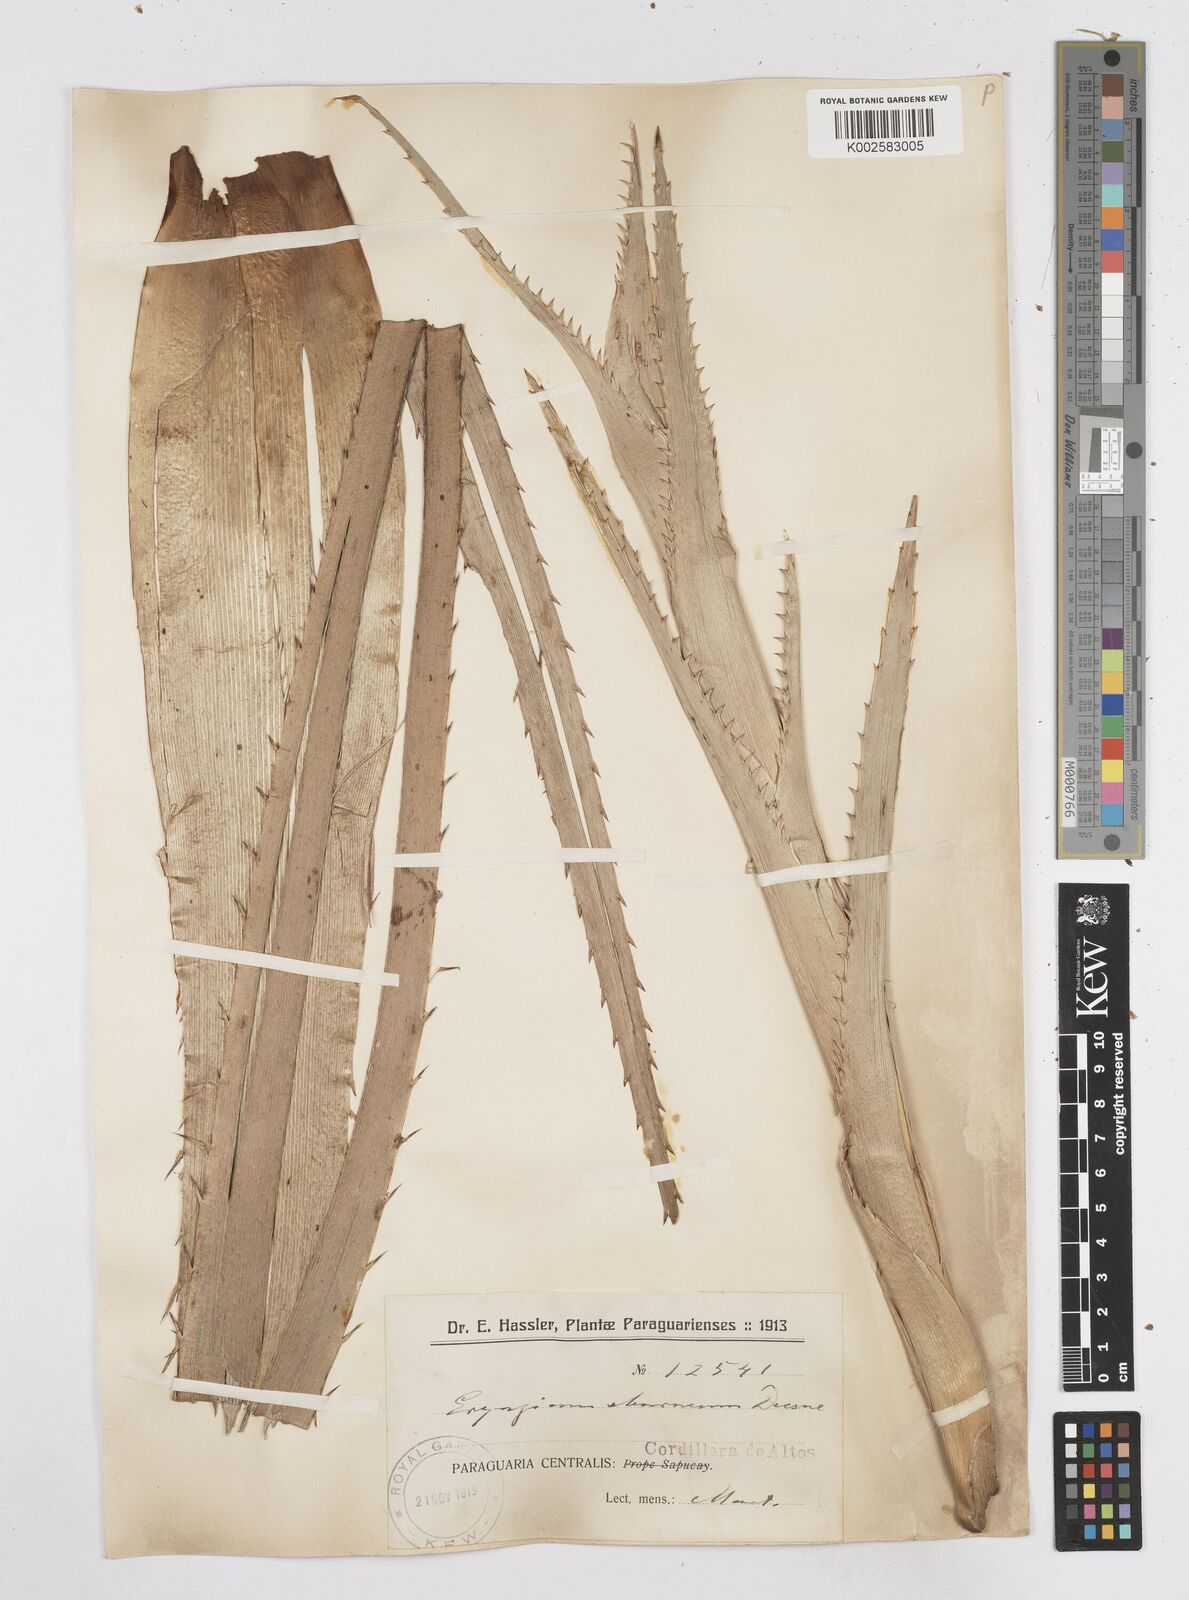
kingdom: Plantae
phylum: Tracheophyta
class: Magnoliopsida
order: Apiales
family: Apiaceae
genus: Eryngium
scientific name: Eryngium eburneum
